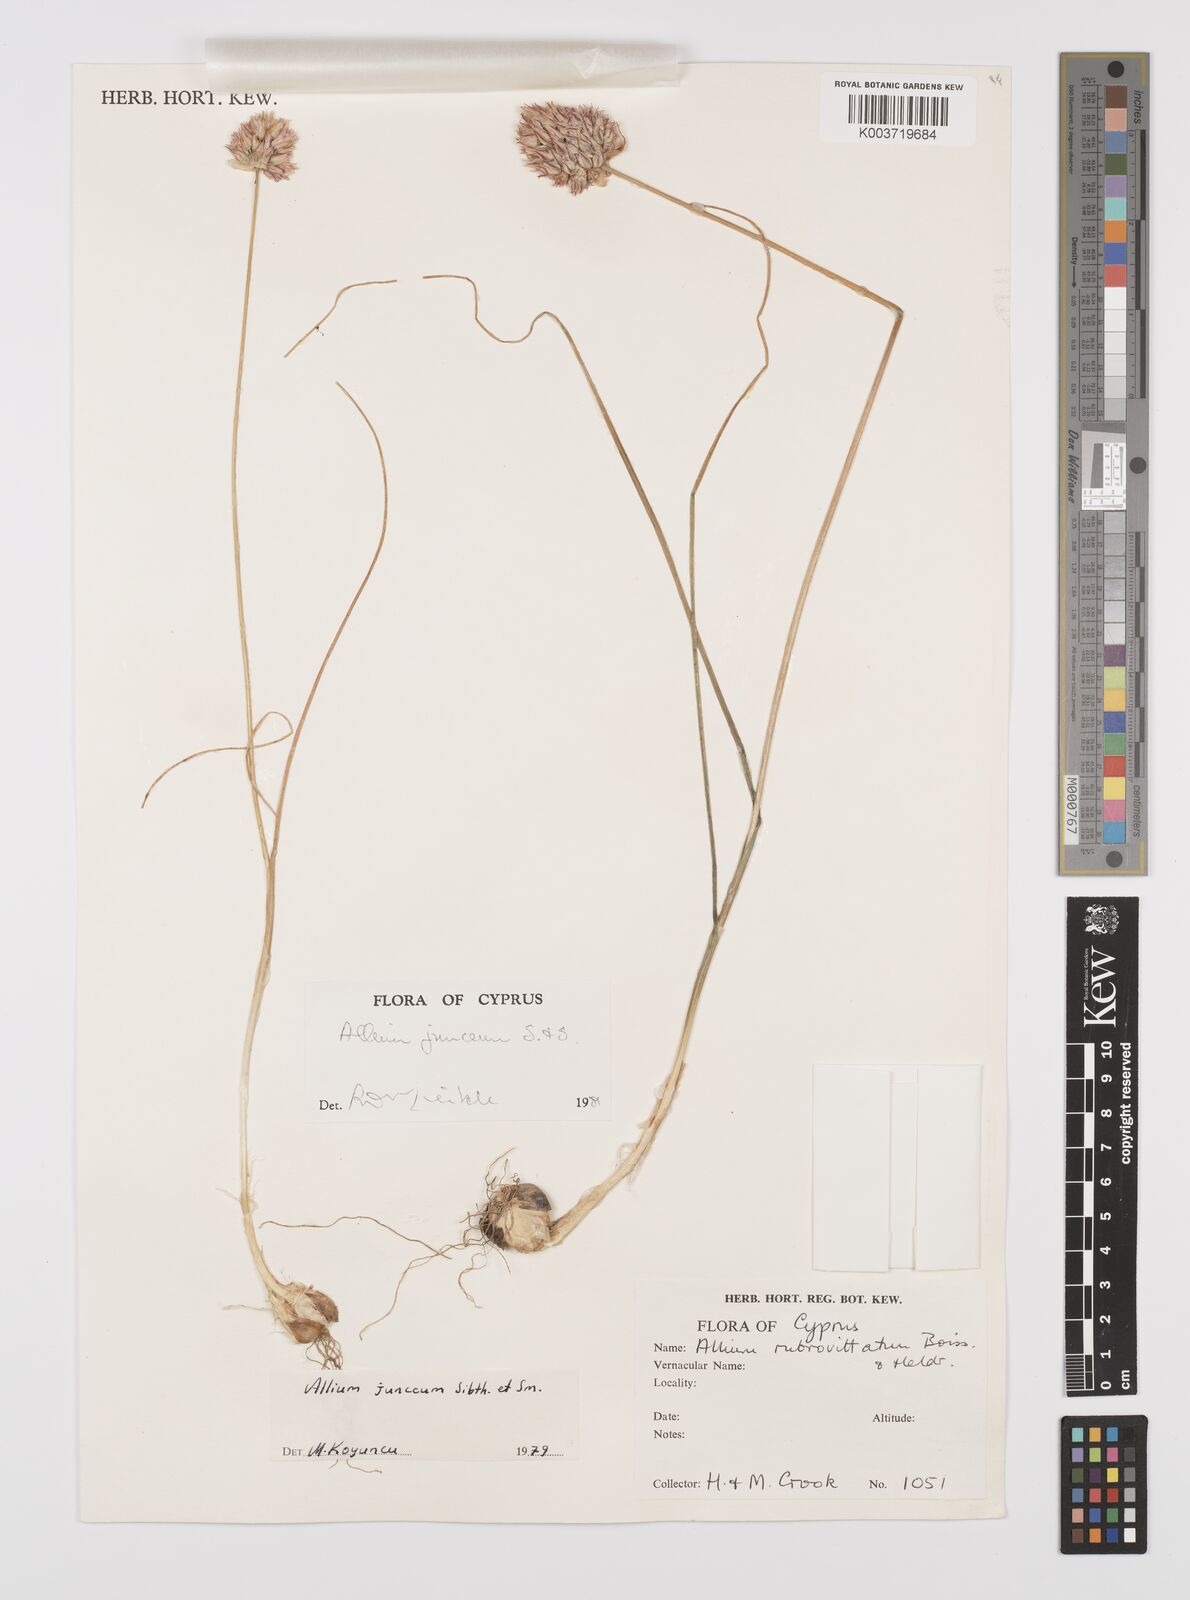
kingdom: Plantae
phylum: Tracheophyta
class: Liliopsida
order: Asparagales
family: Amaryllidaceae
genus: Allium
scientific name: Allium junceum
